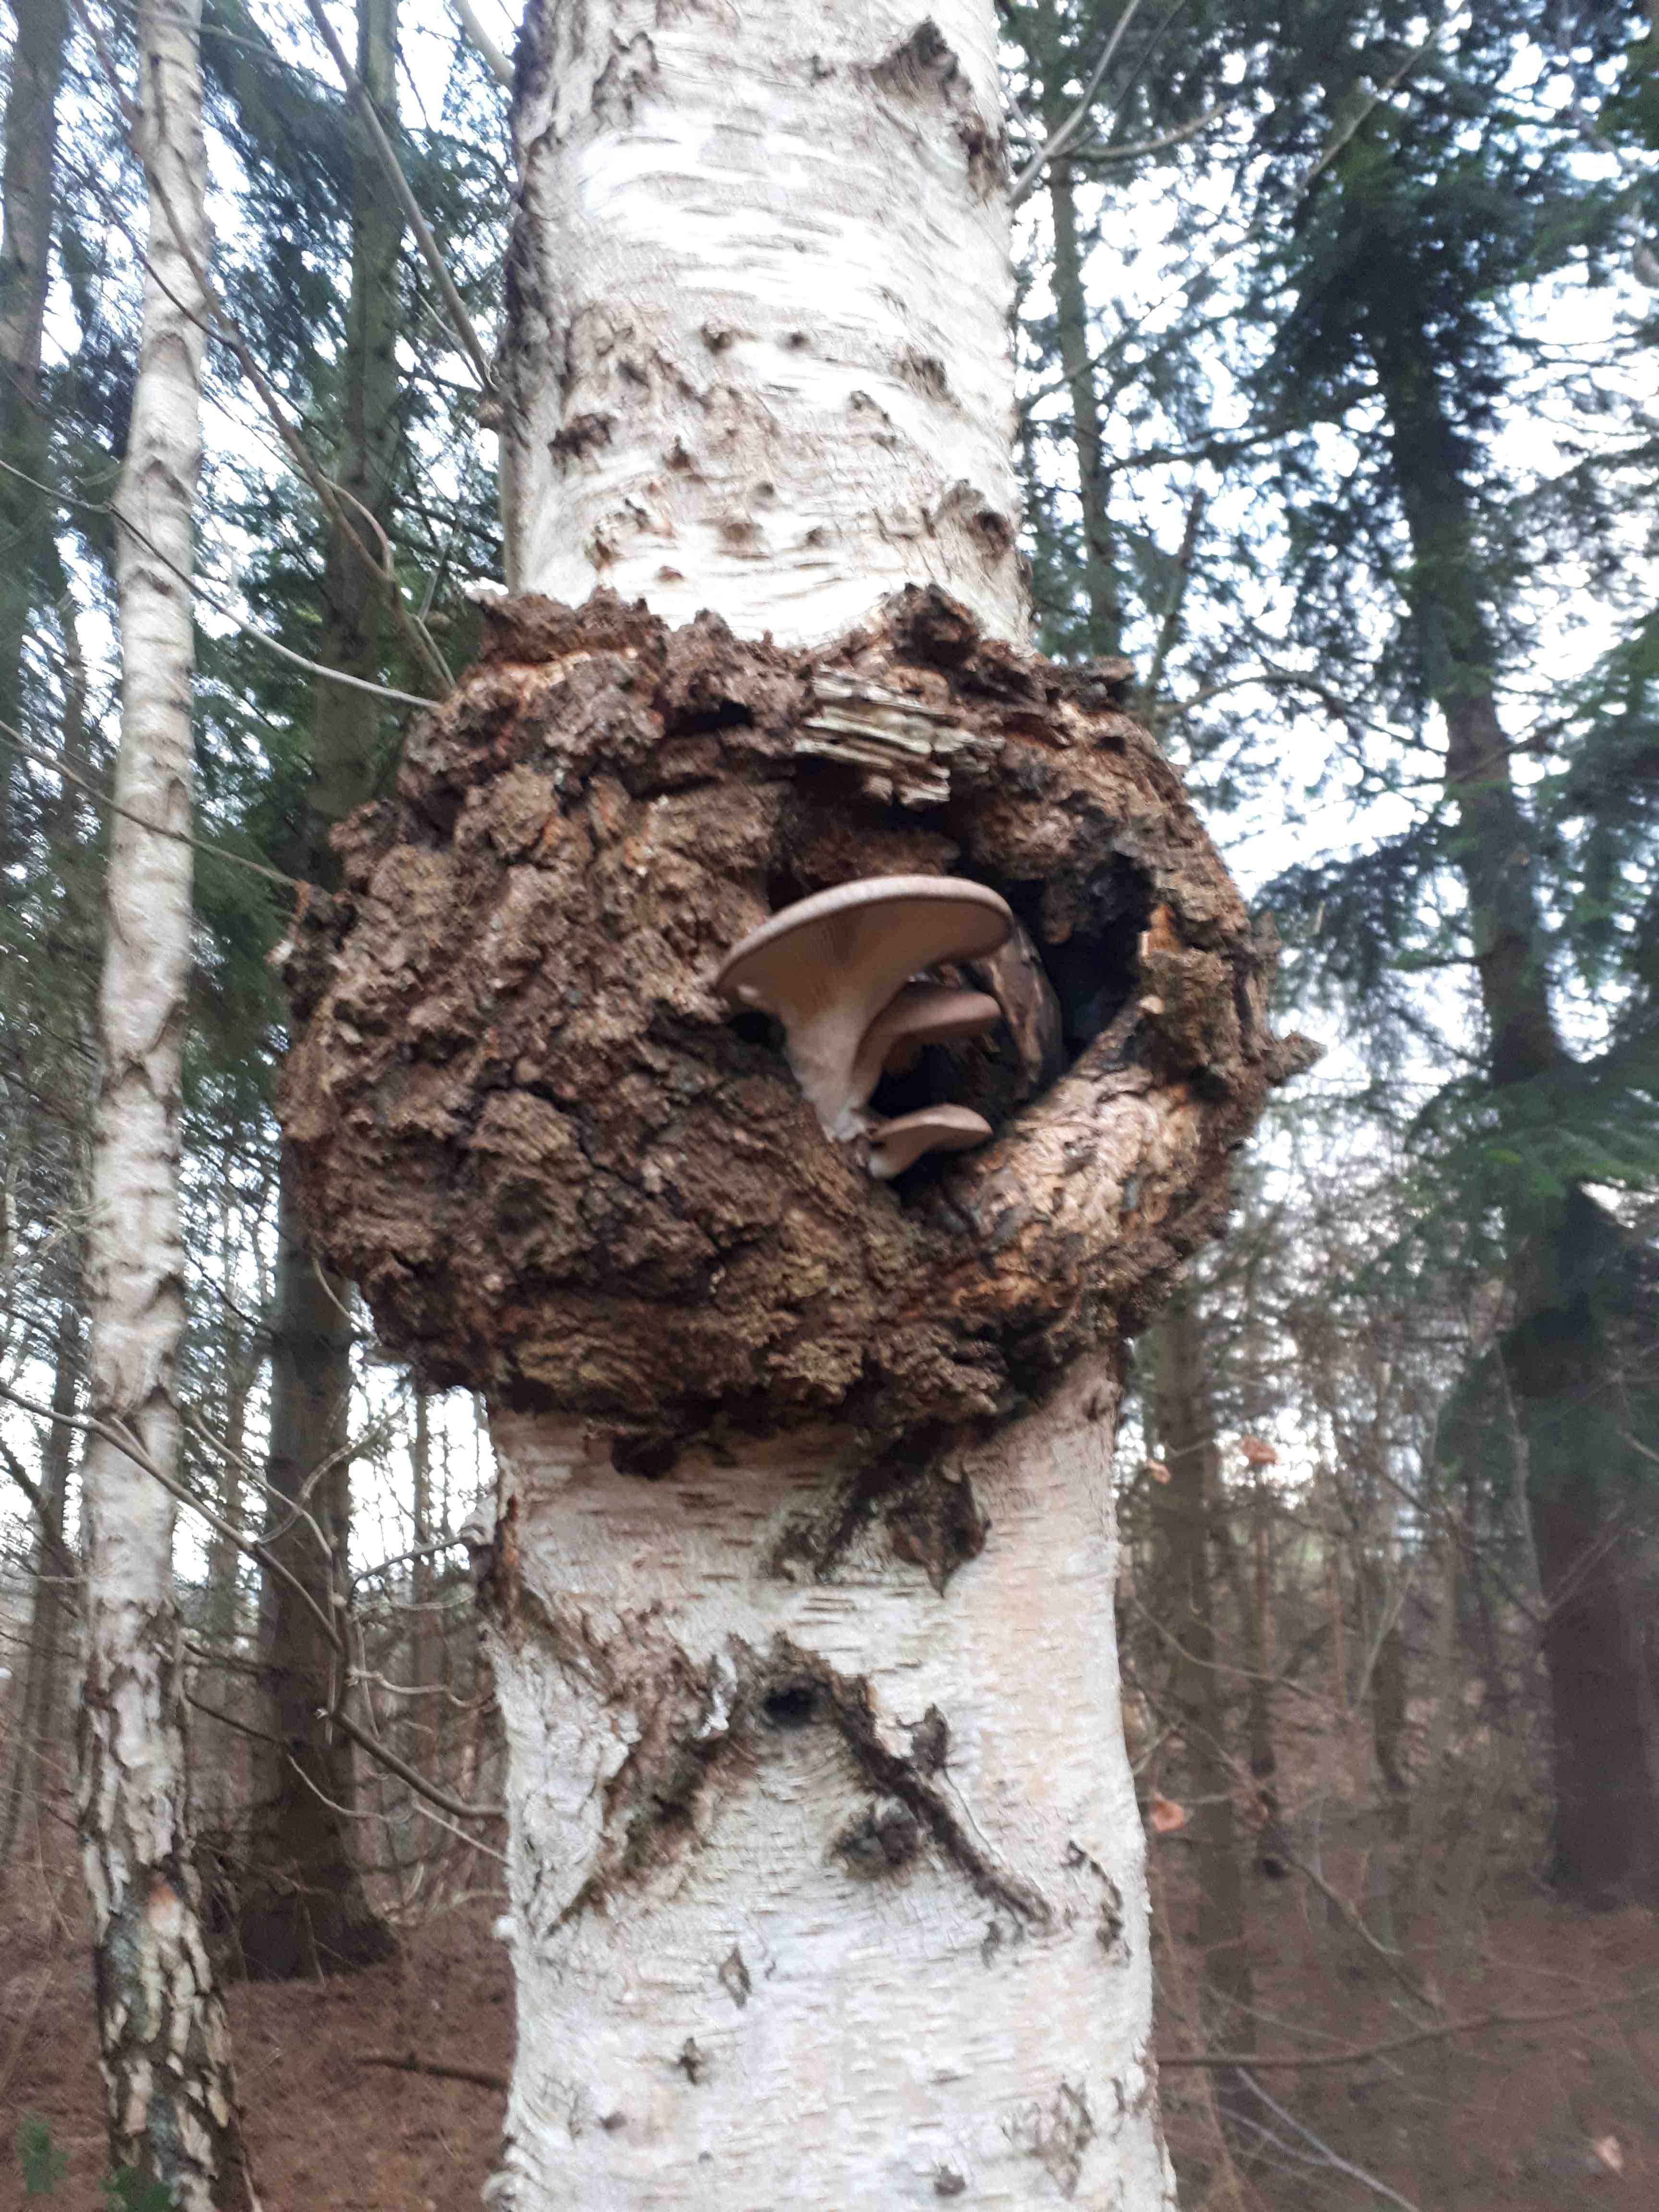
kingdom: Fungi
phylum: Basidiomycota
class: Agaricomycetes
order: Agaricales
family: Pleurotaceae
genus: Pleurotus
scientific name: Pleurotus ostreatus
